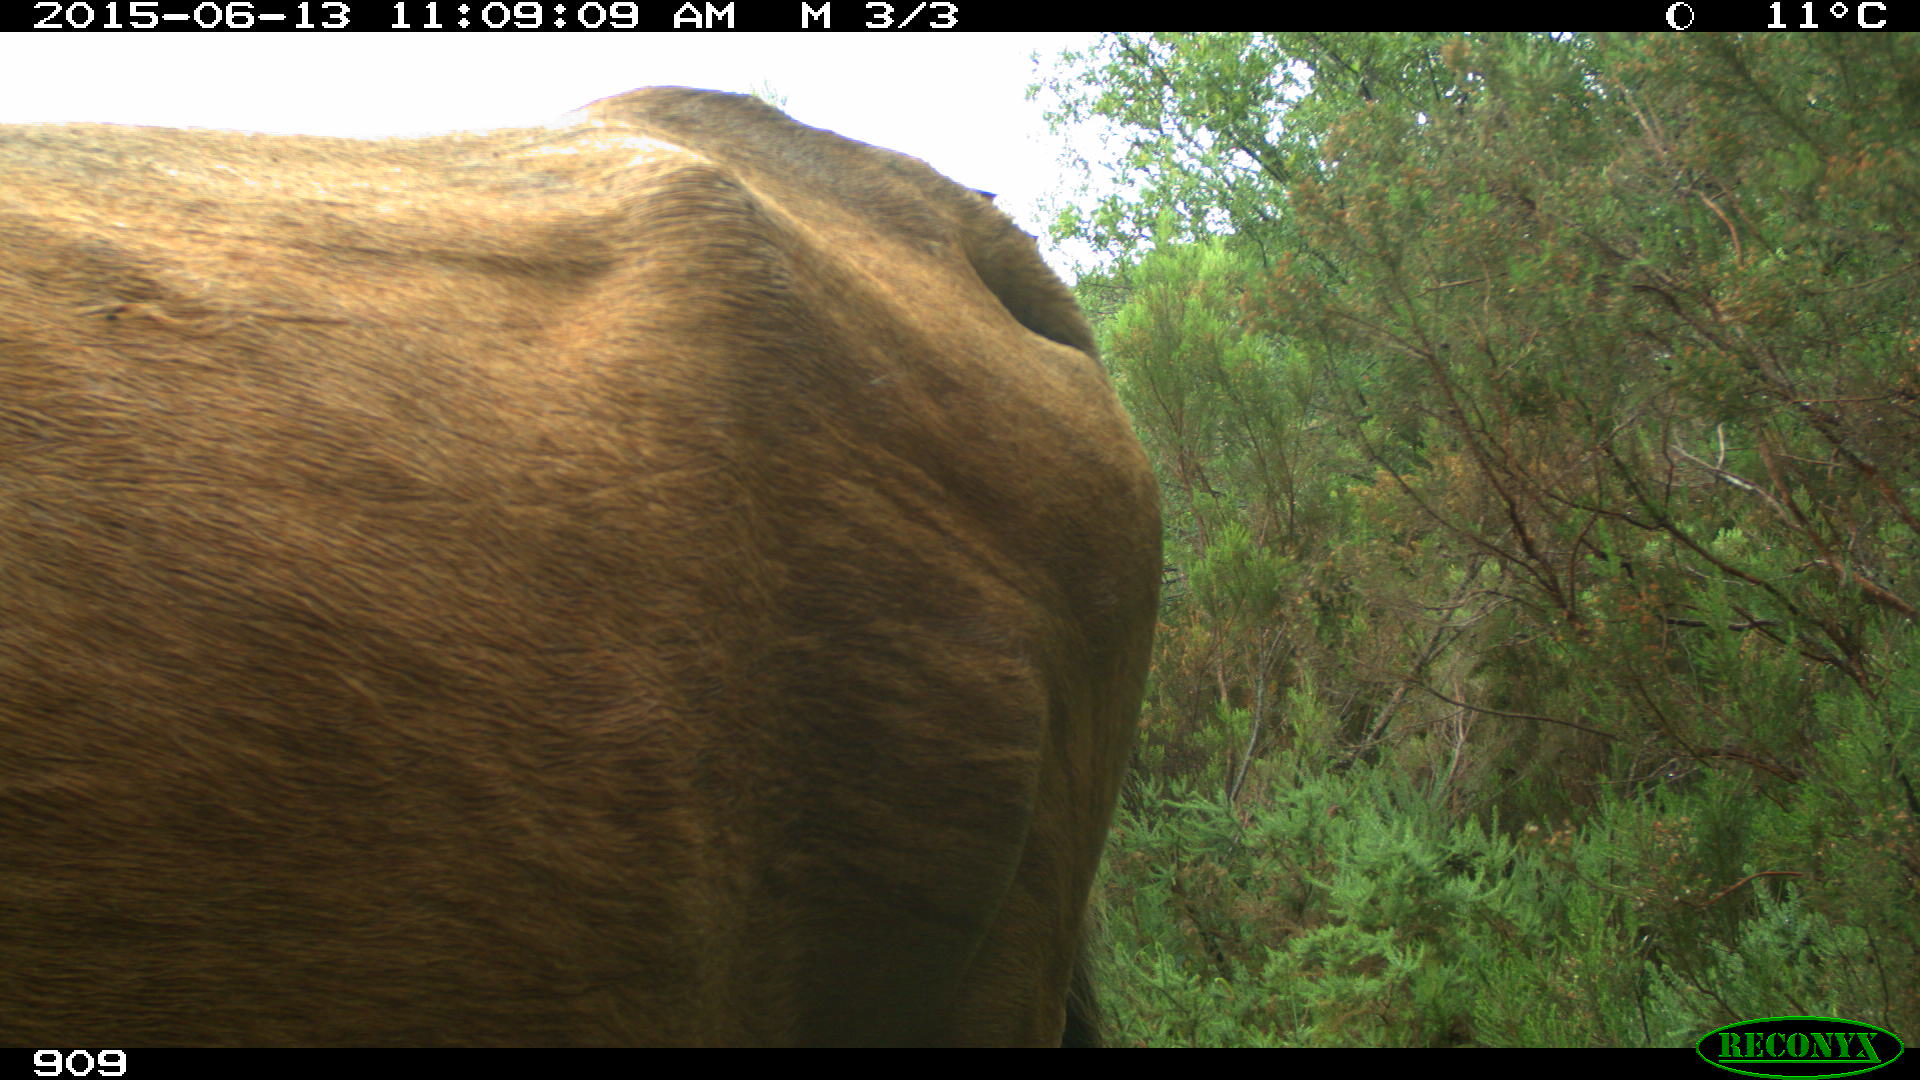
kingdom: Animalia
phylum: Chordata
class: Mammalia
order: Artiodactyla
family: Bovidae
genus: Bos
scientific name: Bos taurus
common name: Domesticated cattle
